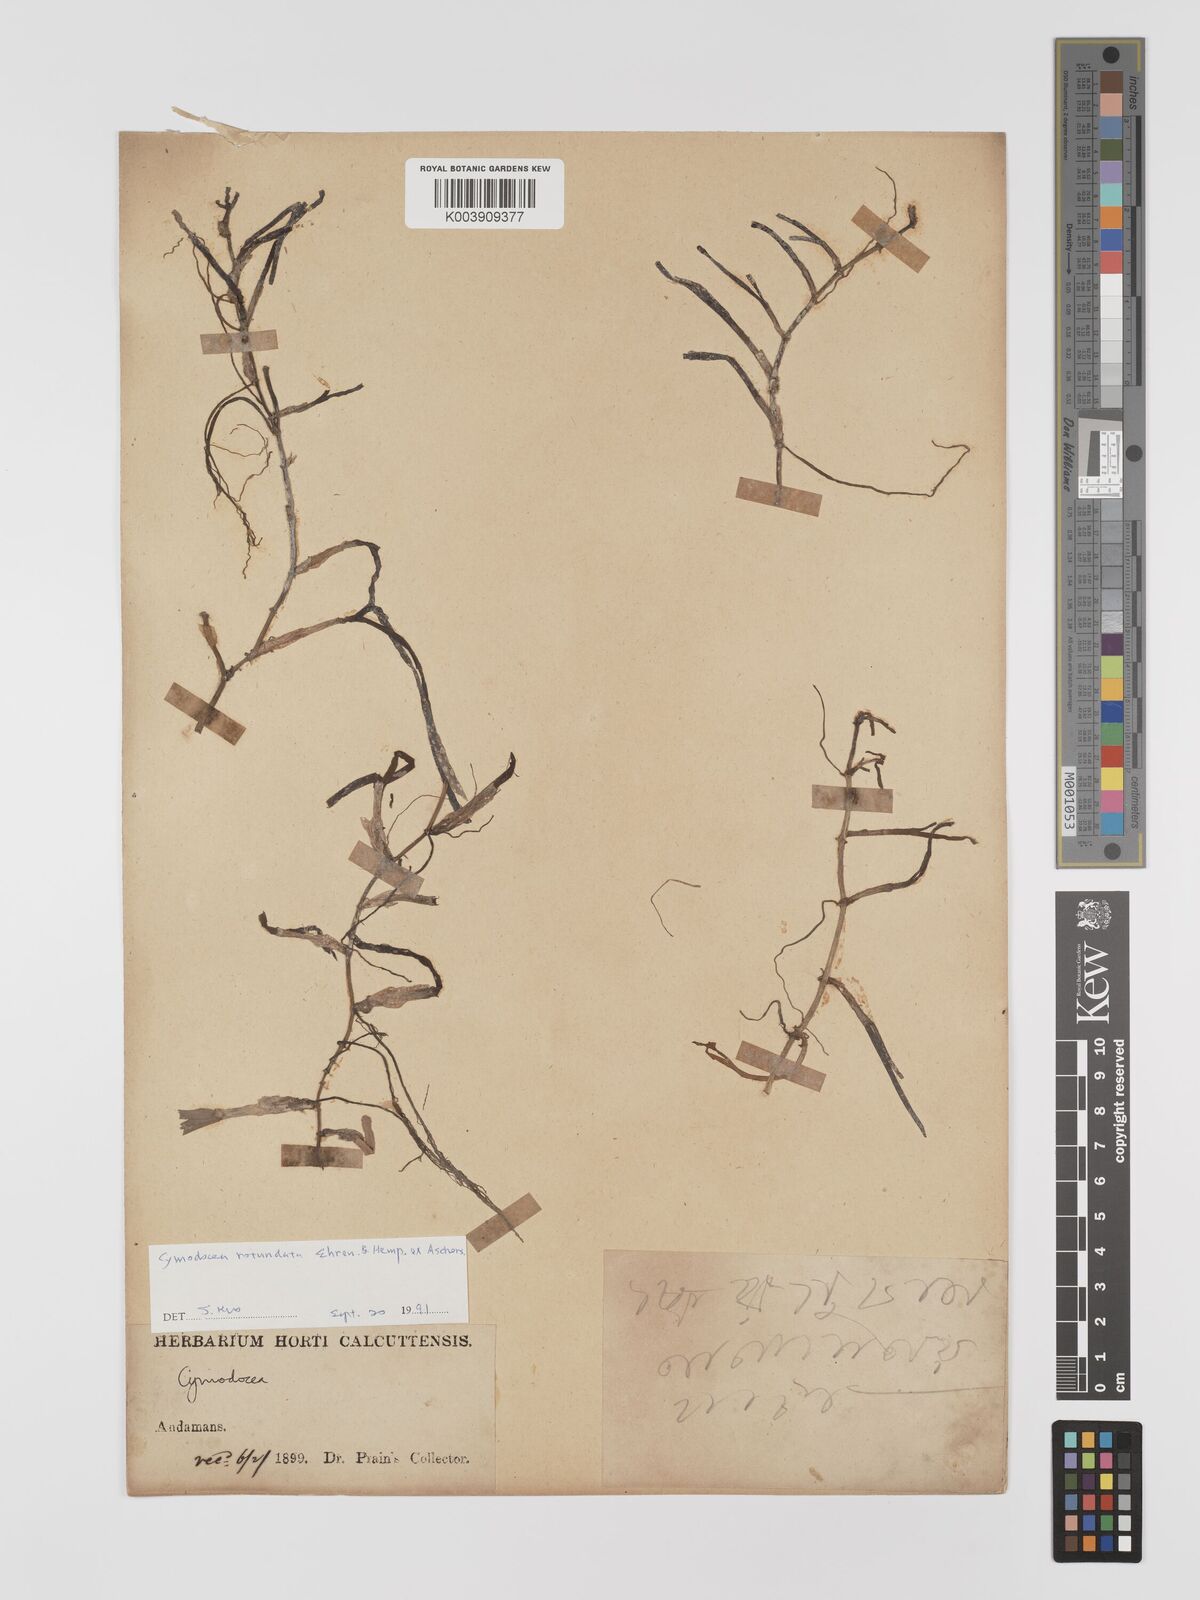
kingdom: Plantae
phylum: Tracheophyta
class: Liliopsida
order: Alismatales
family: Cymodoceaceae
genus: Cymodocea
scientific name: Cymodocea
